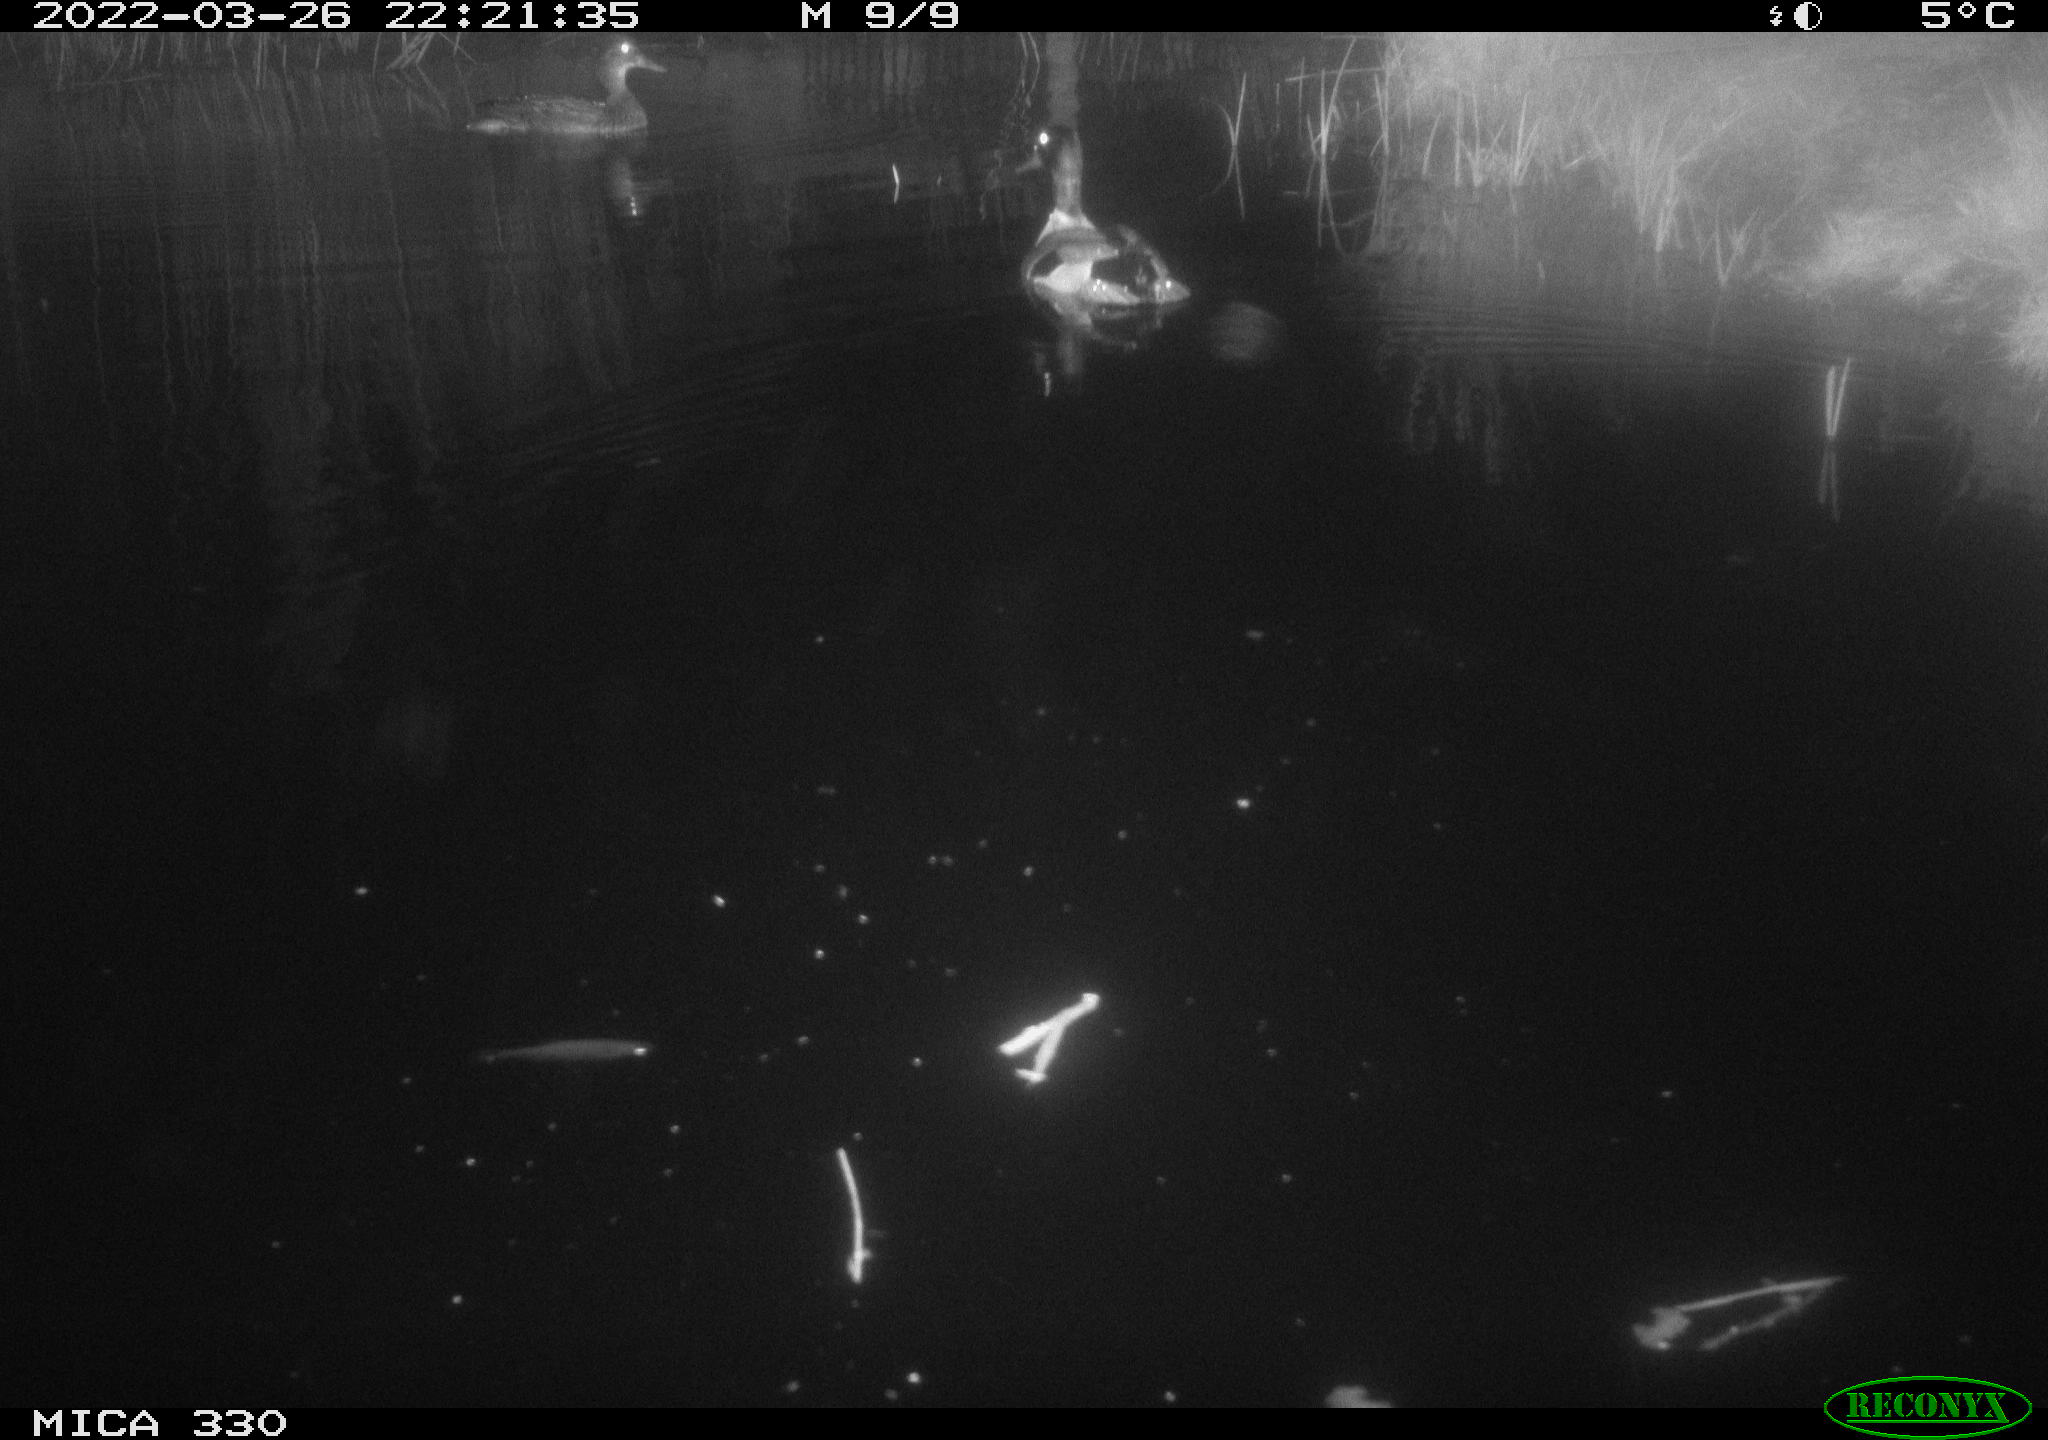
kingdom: Animalia
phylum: Chordata
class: Aves
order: Anseriformes
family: Anatidae
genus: Anas
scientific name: Anas platyrhynchos
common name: Mallard
